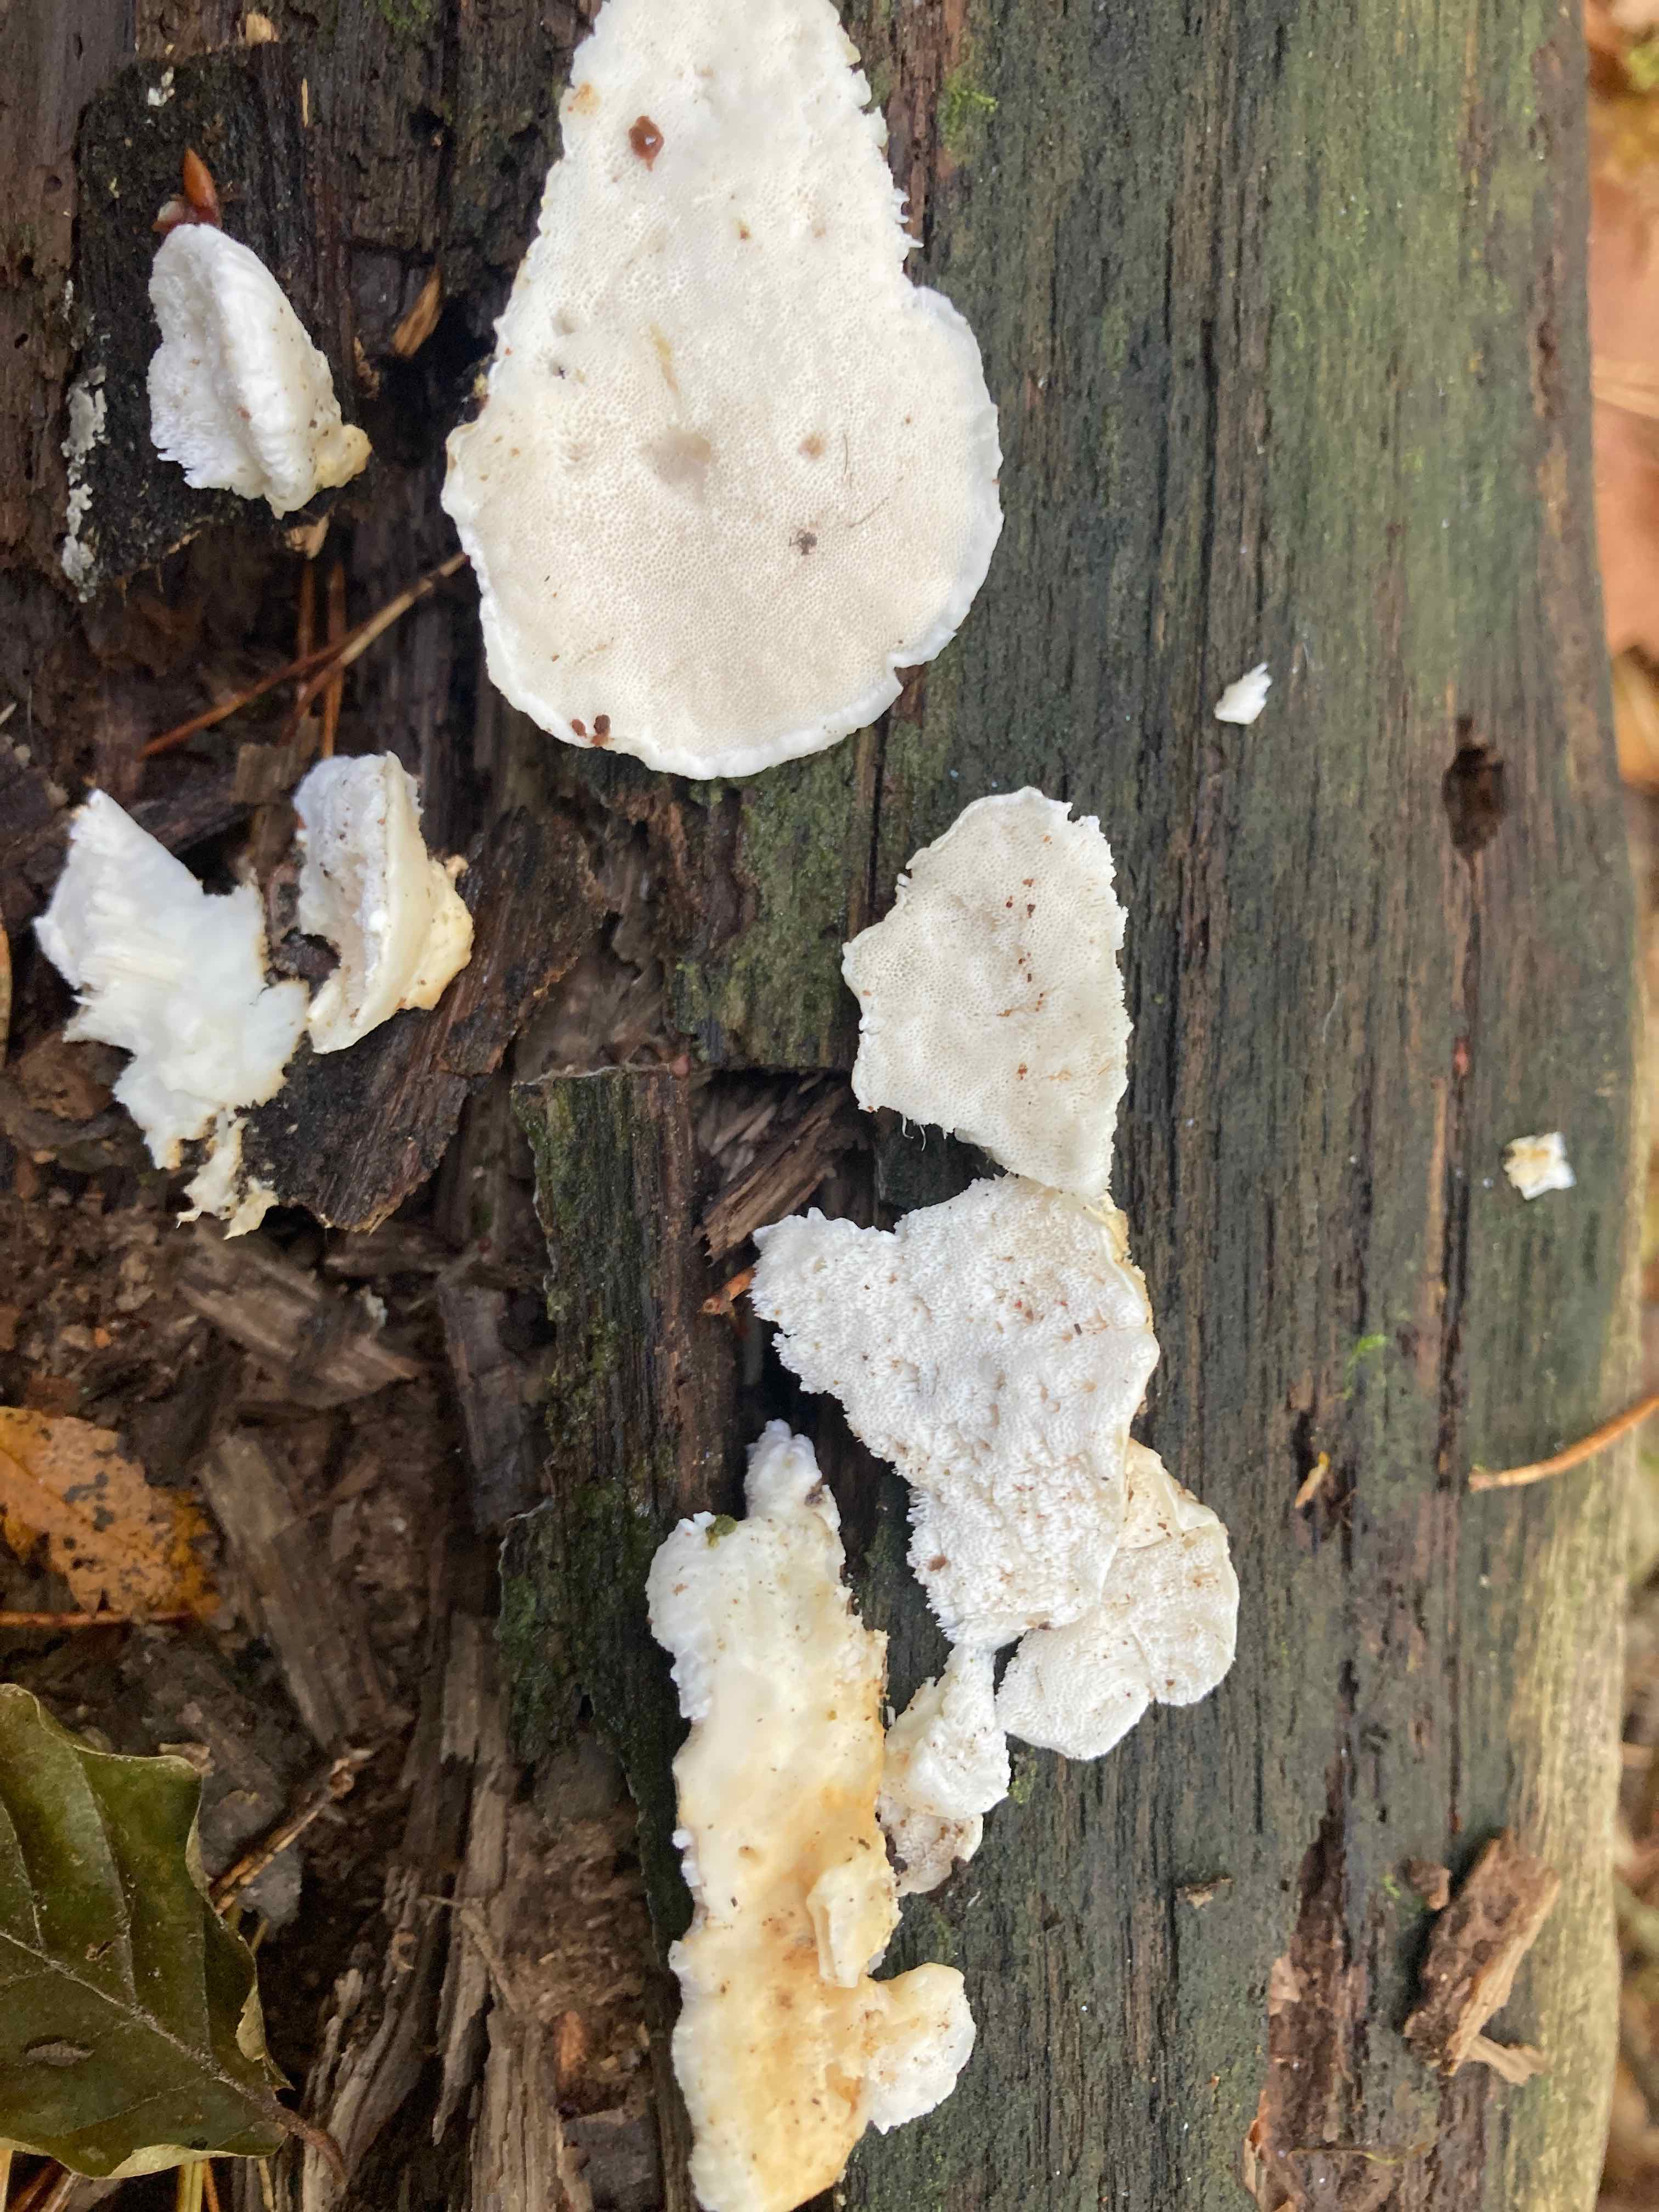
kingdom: Fungi
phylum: Basidiomycota
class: Agaricomycetes
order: Polyporales
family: Dacryobolaceae
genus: Postia
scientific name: Postia tephroleuca
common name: grålig kødporesvamp
